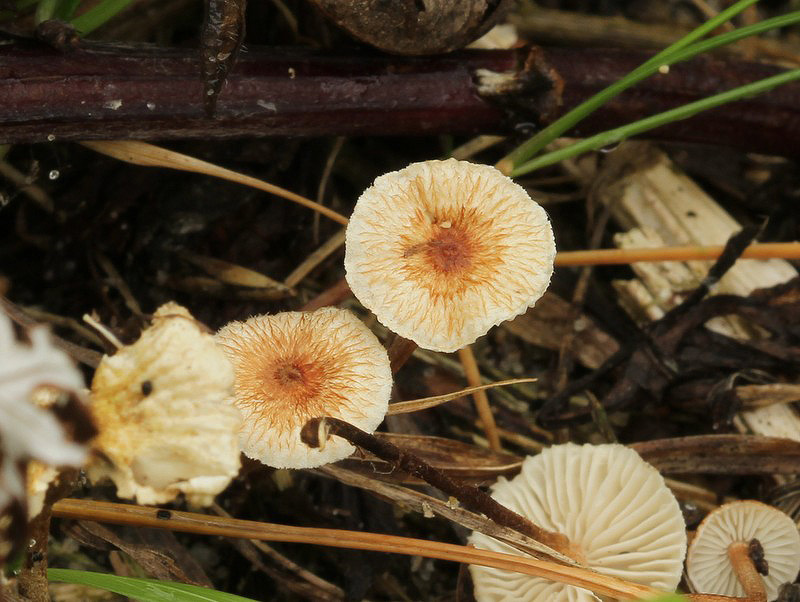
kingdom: Fungi
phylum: Basidiomycota
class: Agaricomycetes
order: Agaricales
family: Marasmiaceae
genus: Crinipellis
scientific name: Crinipellis scabella
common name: børstefod
